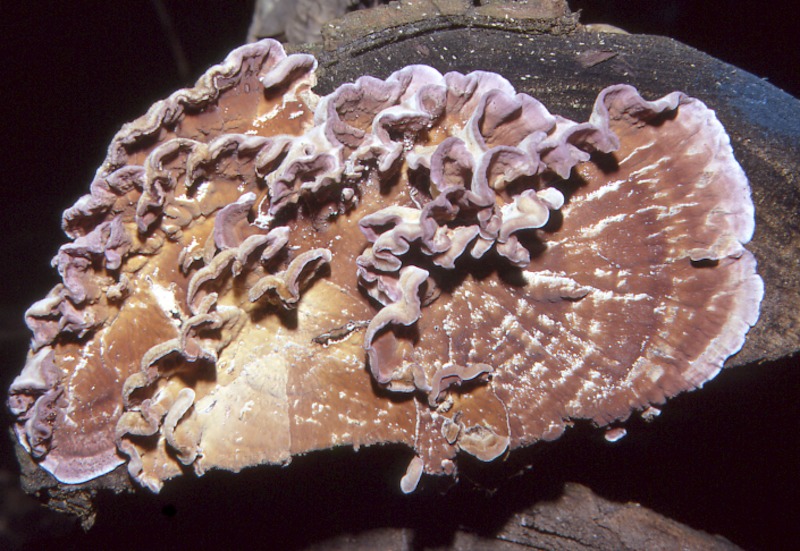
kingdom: Fungi
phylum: Basidiomycota
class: Agaricomycetes
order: Agaricales
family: Cyphellaceae
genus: Chondrostereum
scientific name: Chondrostereum purpureum
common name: Silver leaf disease
